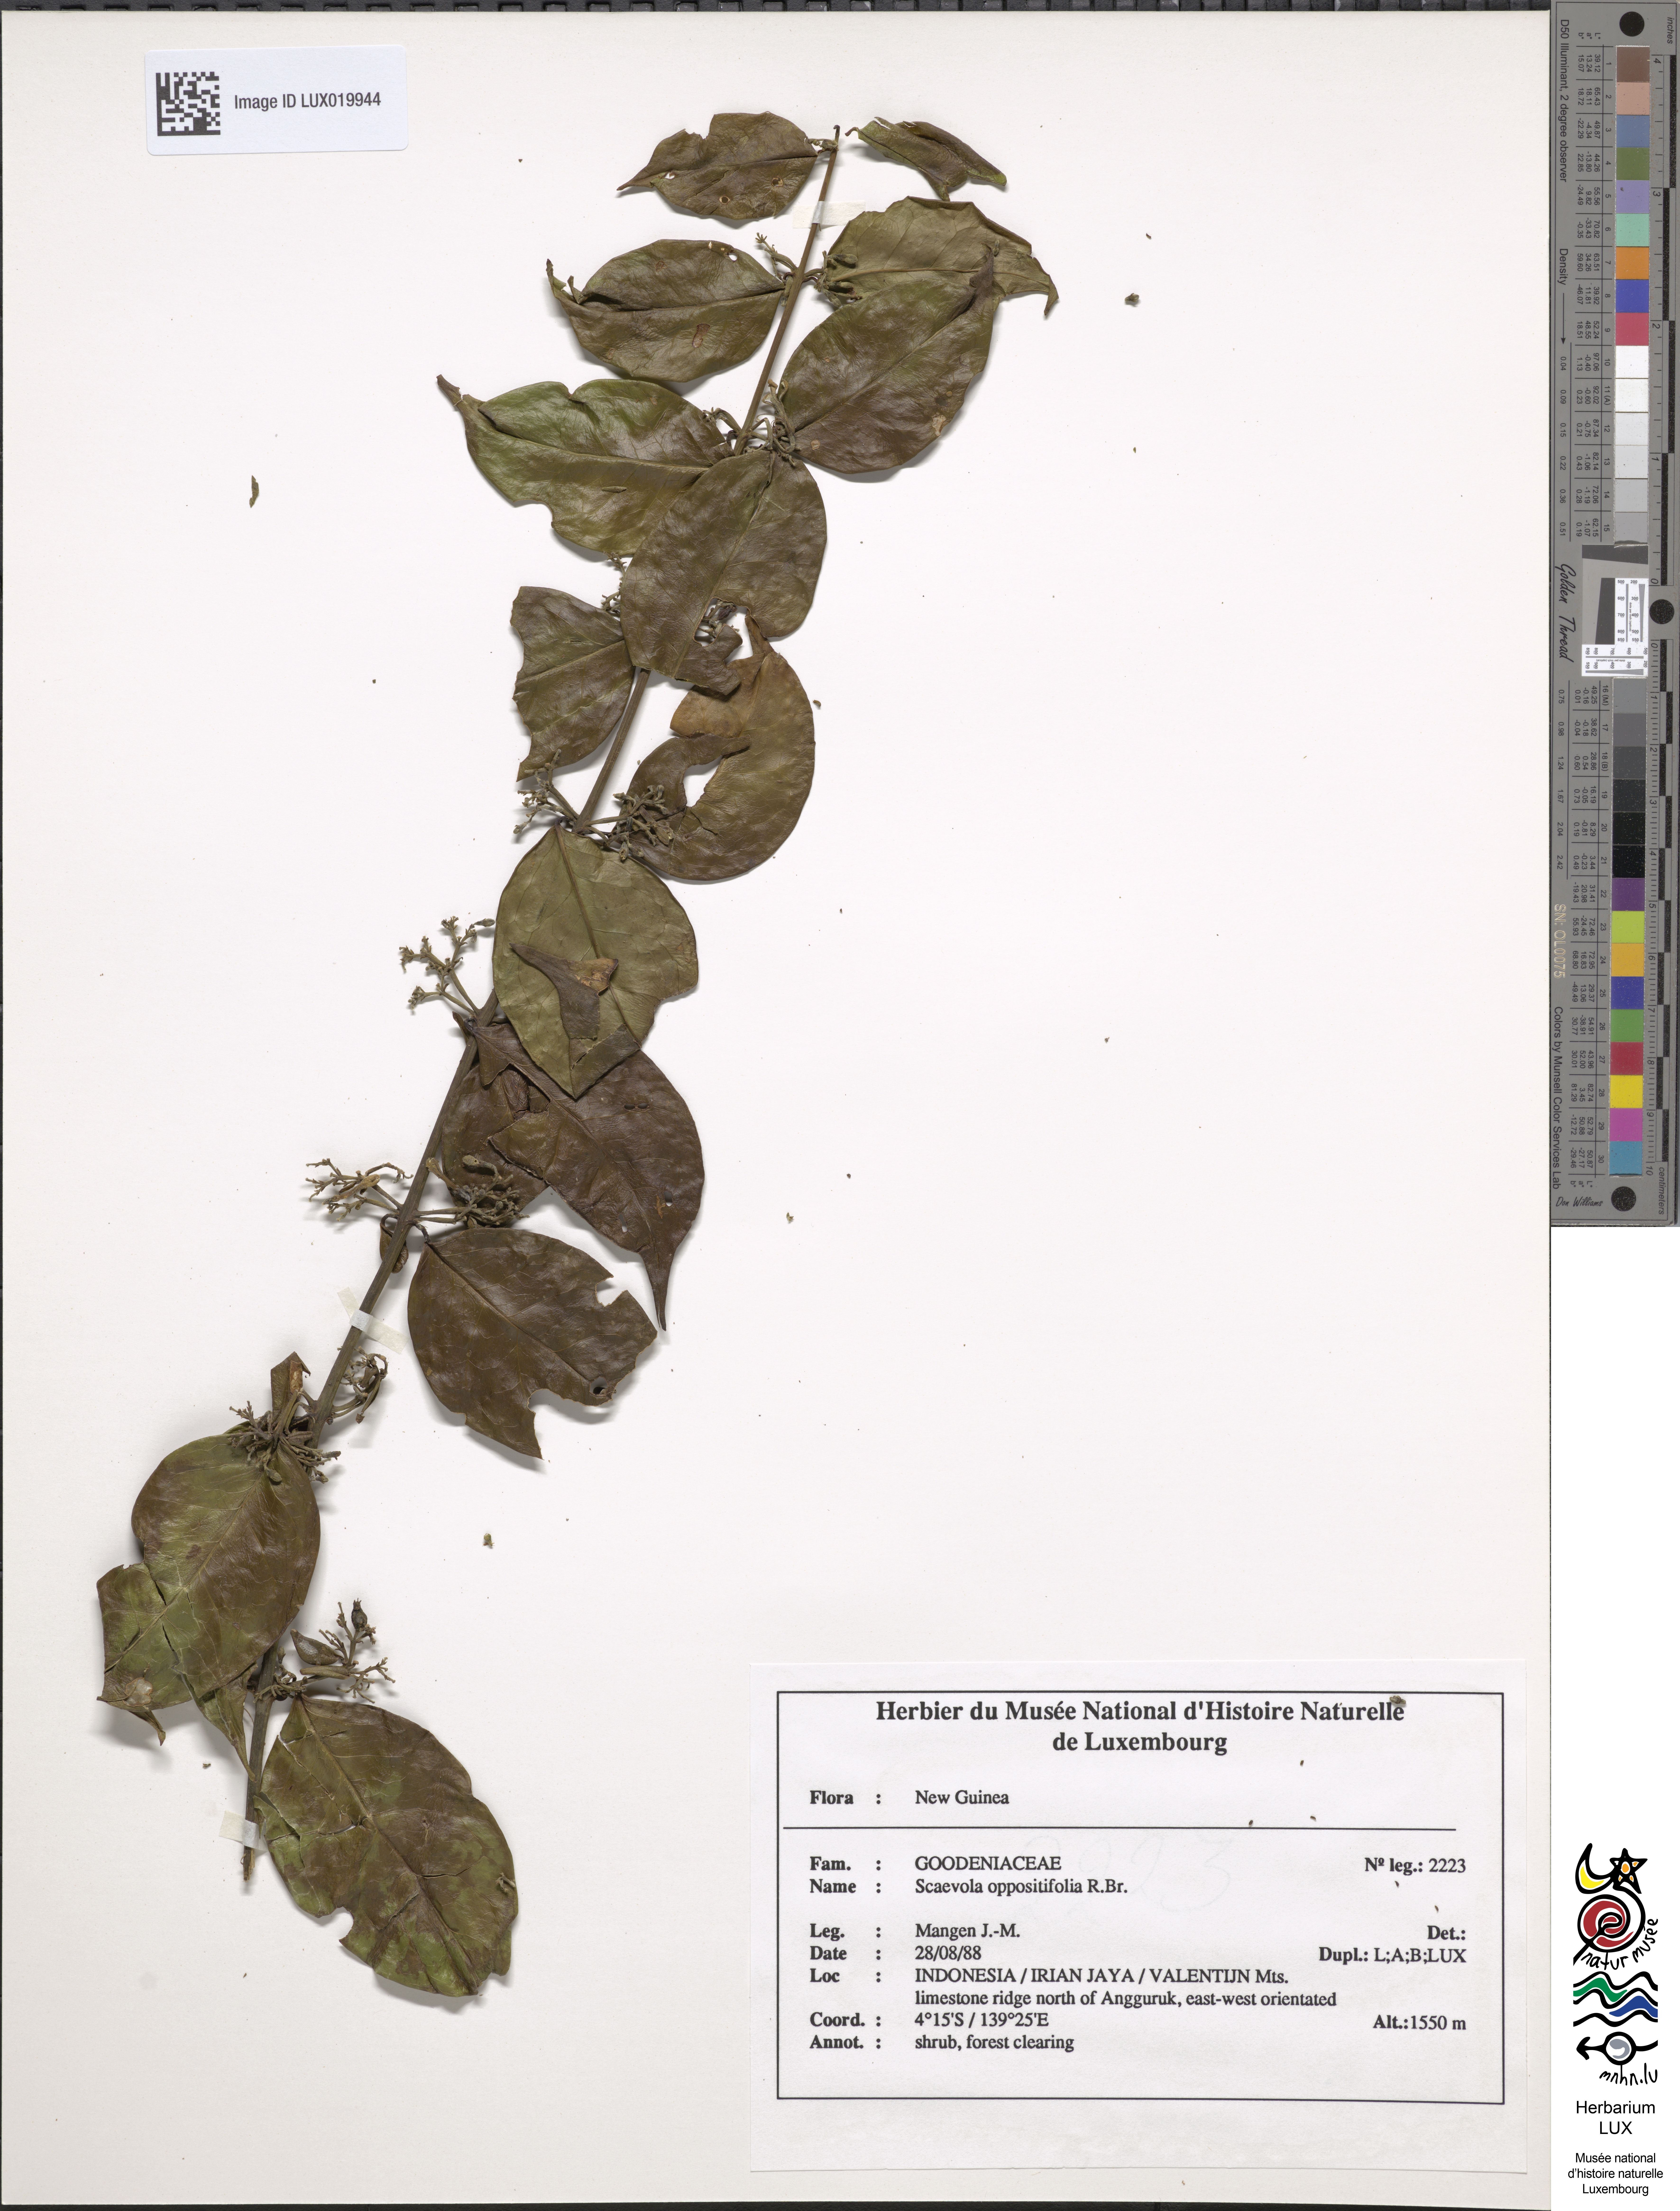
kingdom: Plantae
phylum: Tracheophyta
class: Magnoliopsida
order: Asterales
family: Goodeniaceae
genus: Scaevola
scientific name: Scaevola oppositifolia
